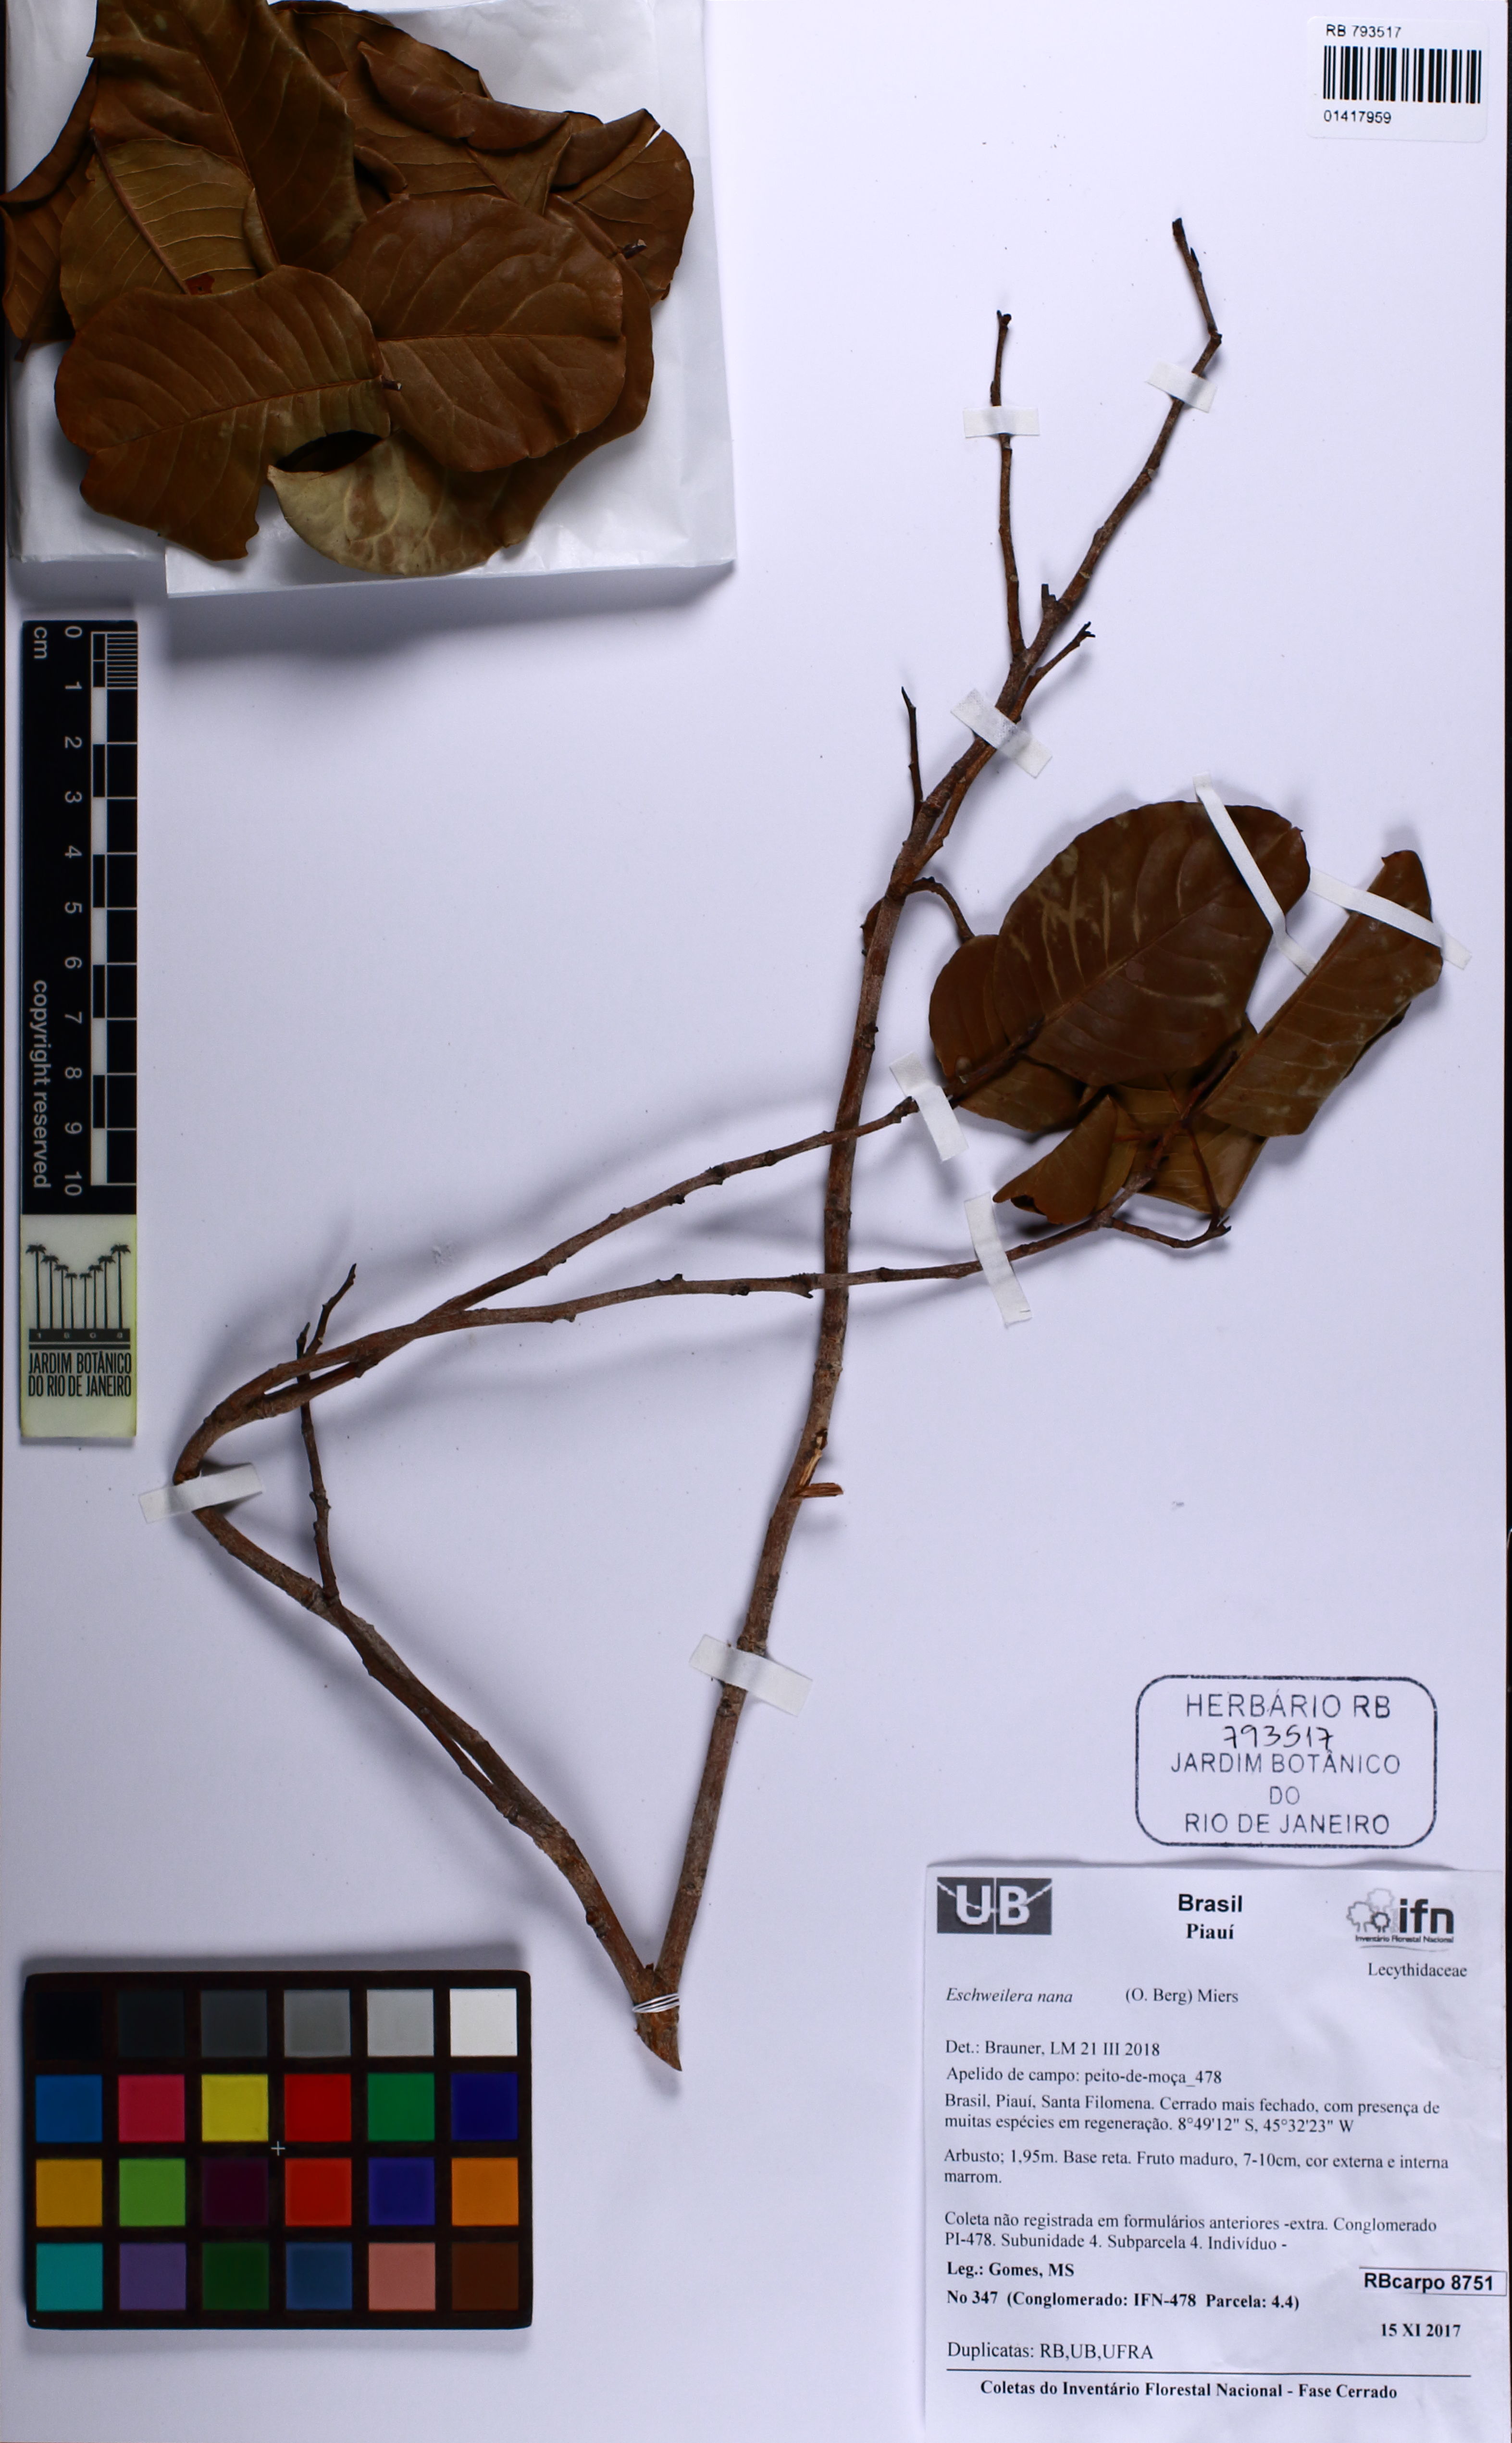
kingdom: Plantae
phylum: Tracheophyta
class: Magnoliopsida
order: Ericales
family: Lecythidaceae
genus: Eschweilera
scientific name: Eschweilera nana
